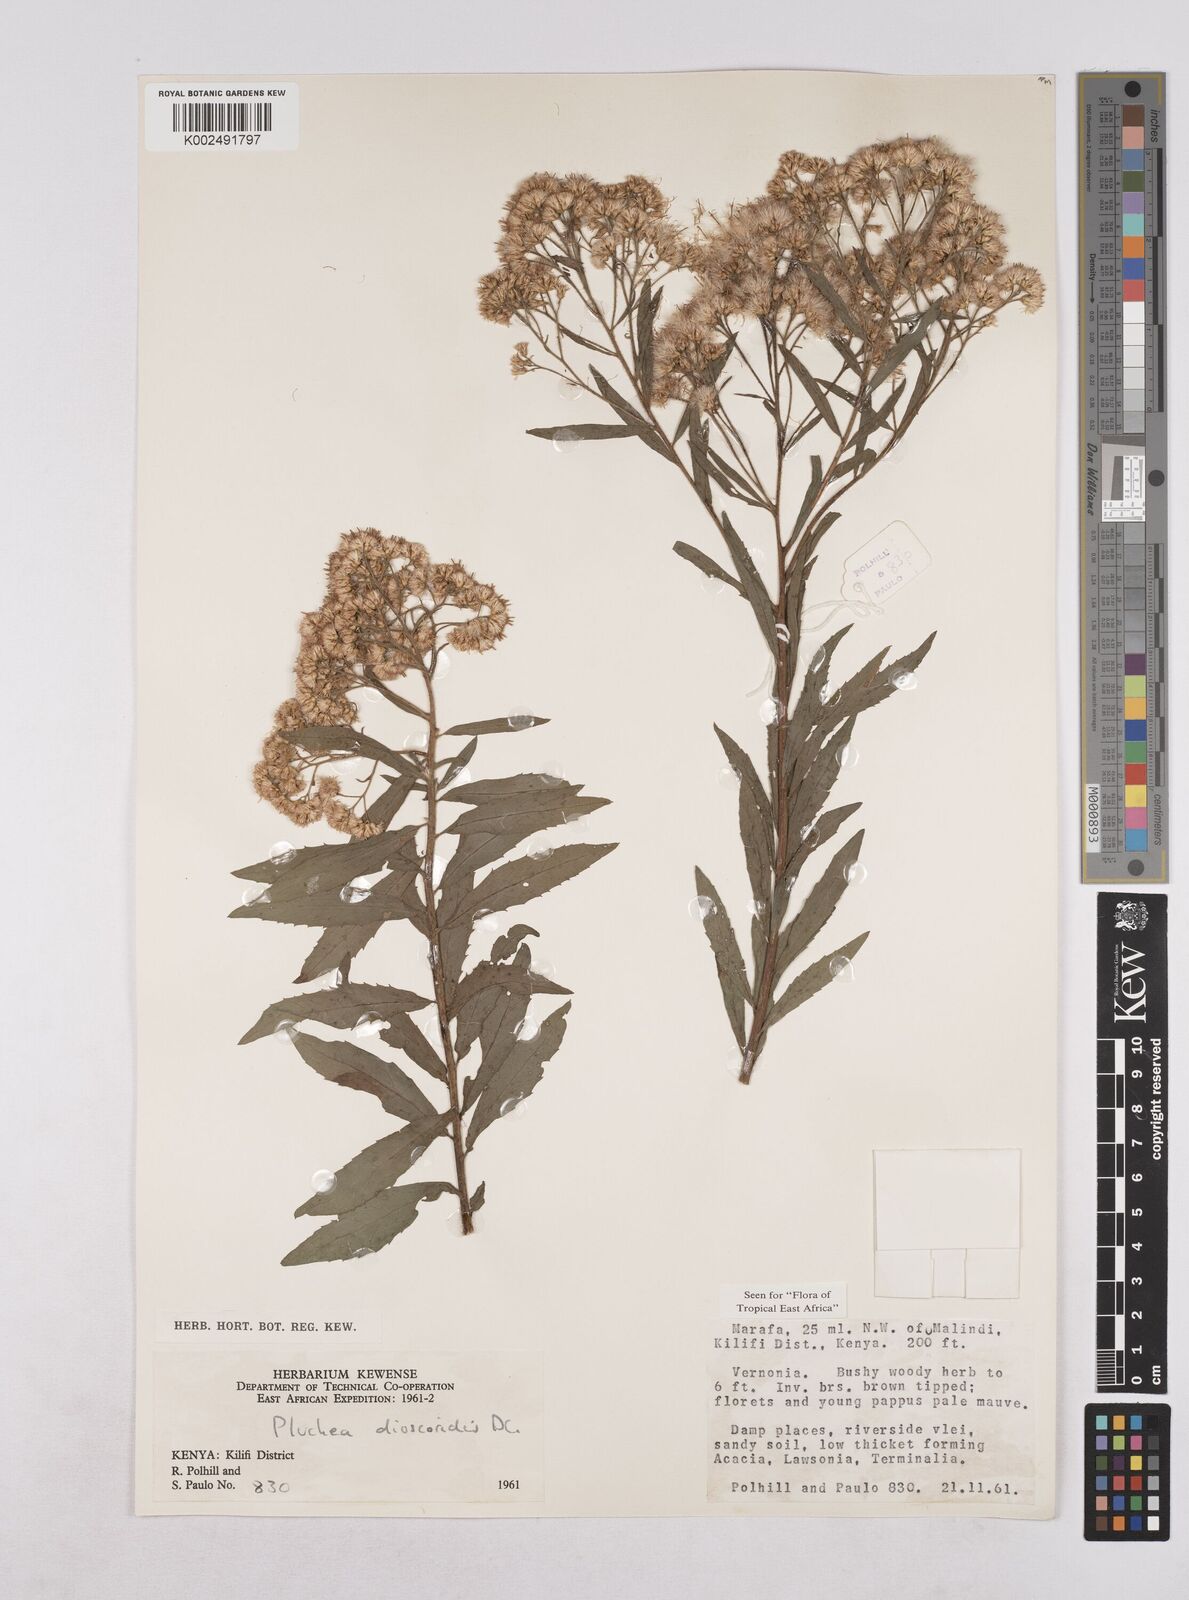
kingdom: Plantae
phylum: Tracheophyta
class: Magnoliopsida
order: Asterales
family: Asteraceae
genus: Pluchea
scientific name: Pluchea dioscoridis
